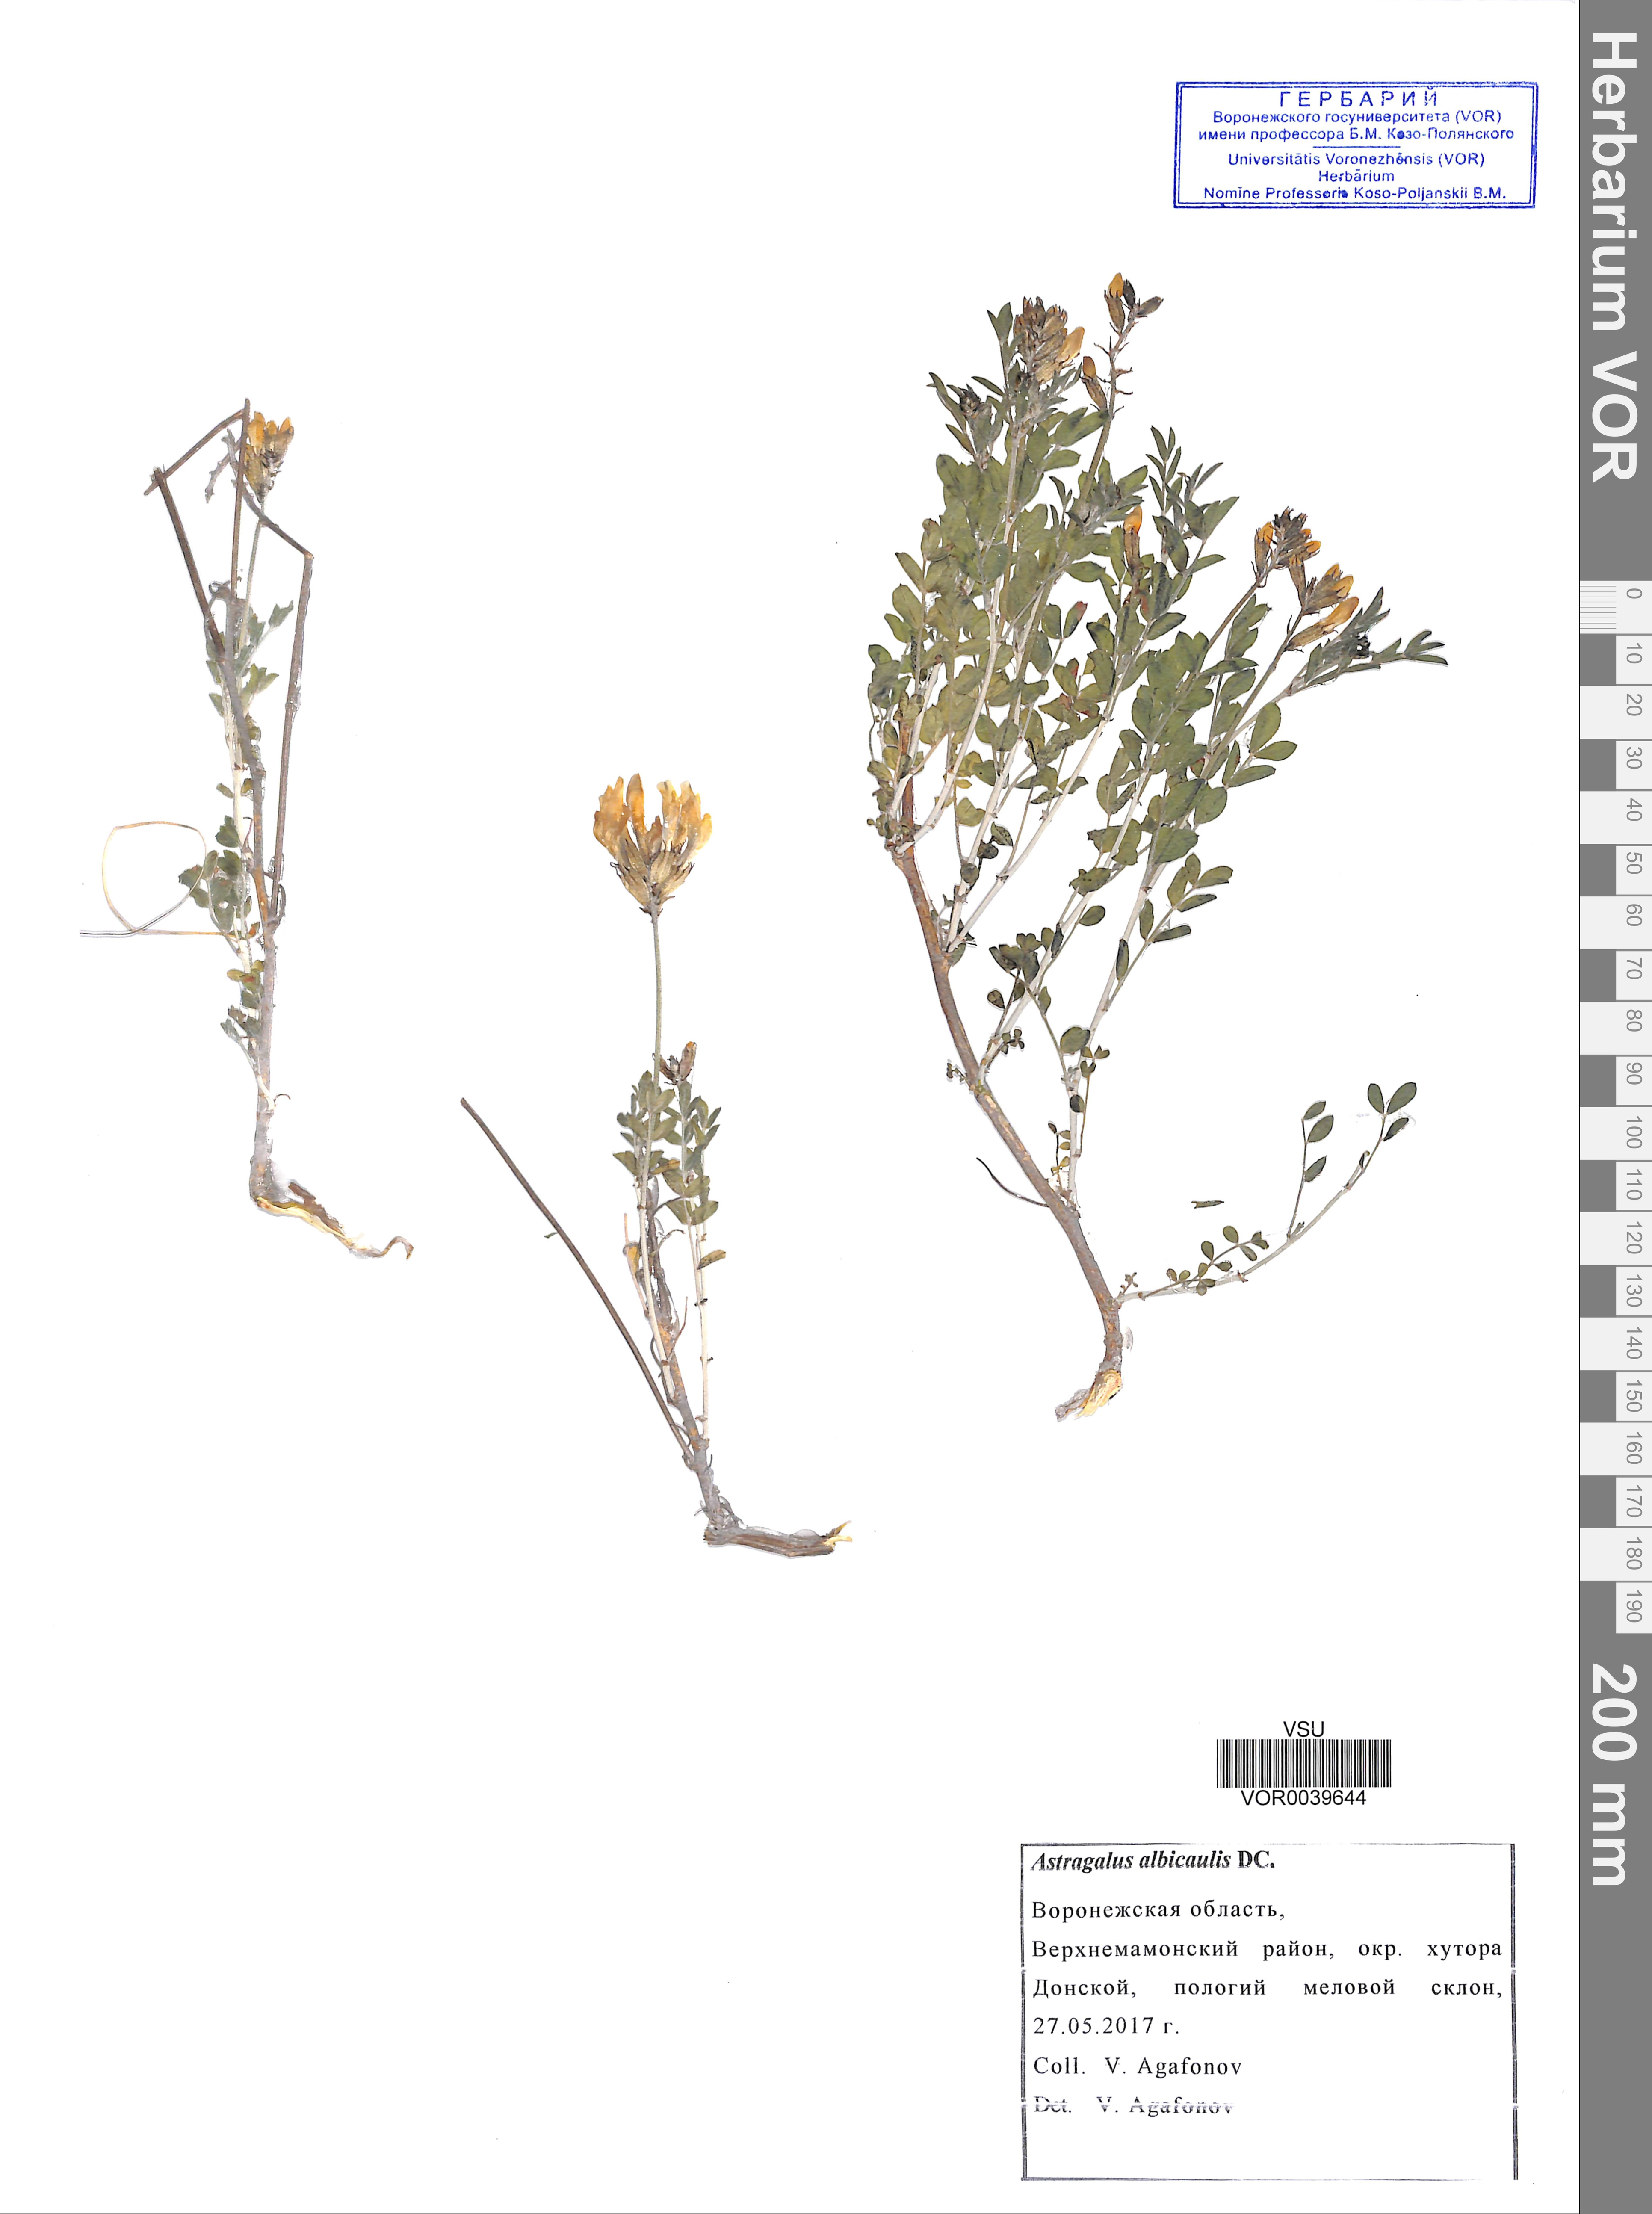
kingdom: Plantae
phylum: Tracheophyta
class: Magnoliopsida
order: Fabales
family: Fabaceae
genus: Astragalus
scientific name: Astragalus albicaulis
